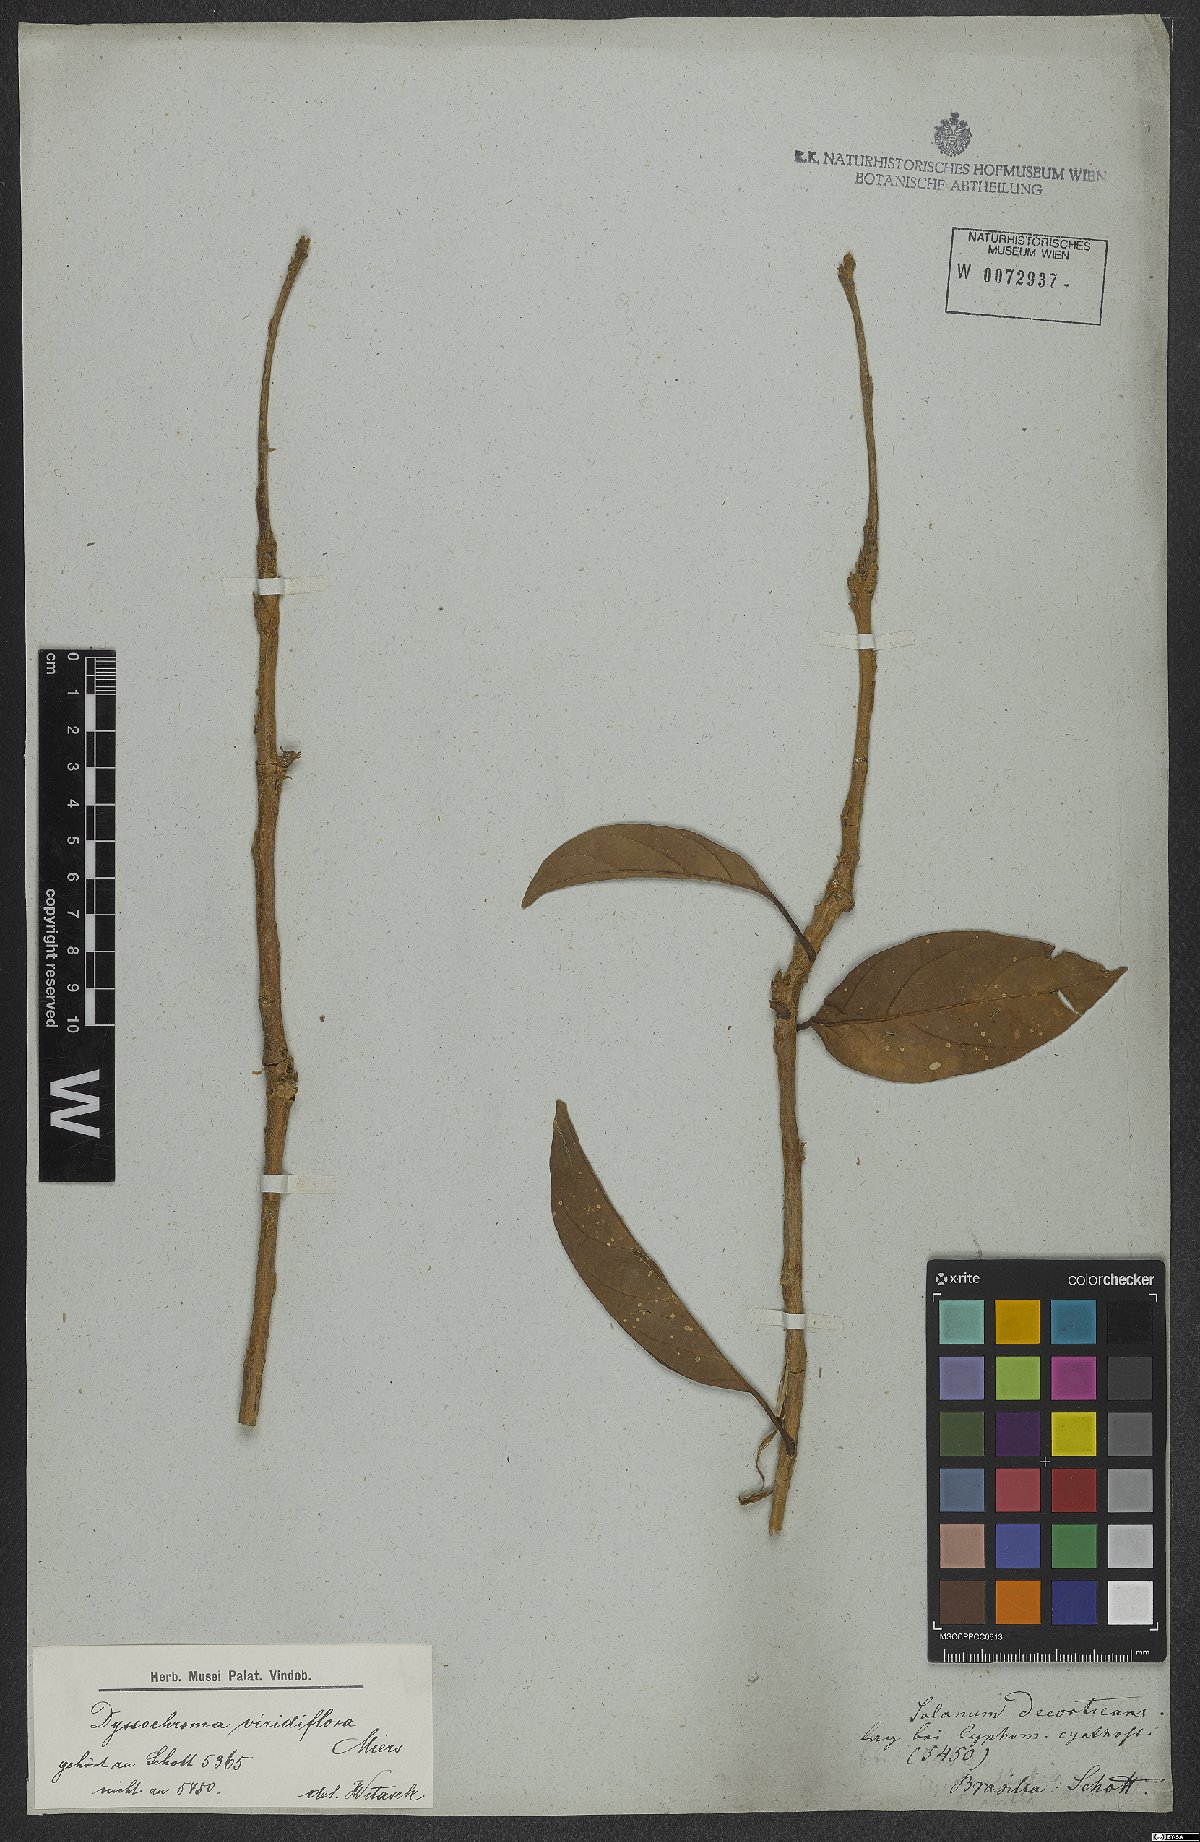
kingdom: Plantae
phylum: Tracheophyta
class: Magnoliopsida
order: Solanales
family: Solanaceae
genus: Dyssochroma
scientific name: Dyssochroma viridiflorum
